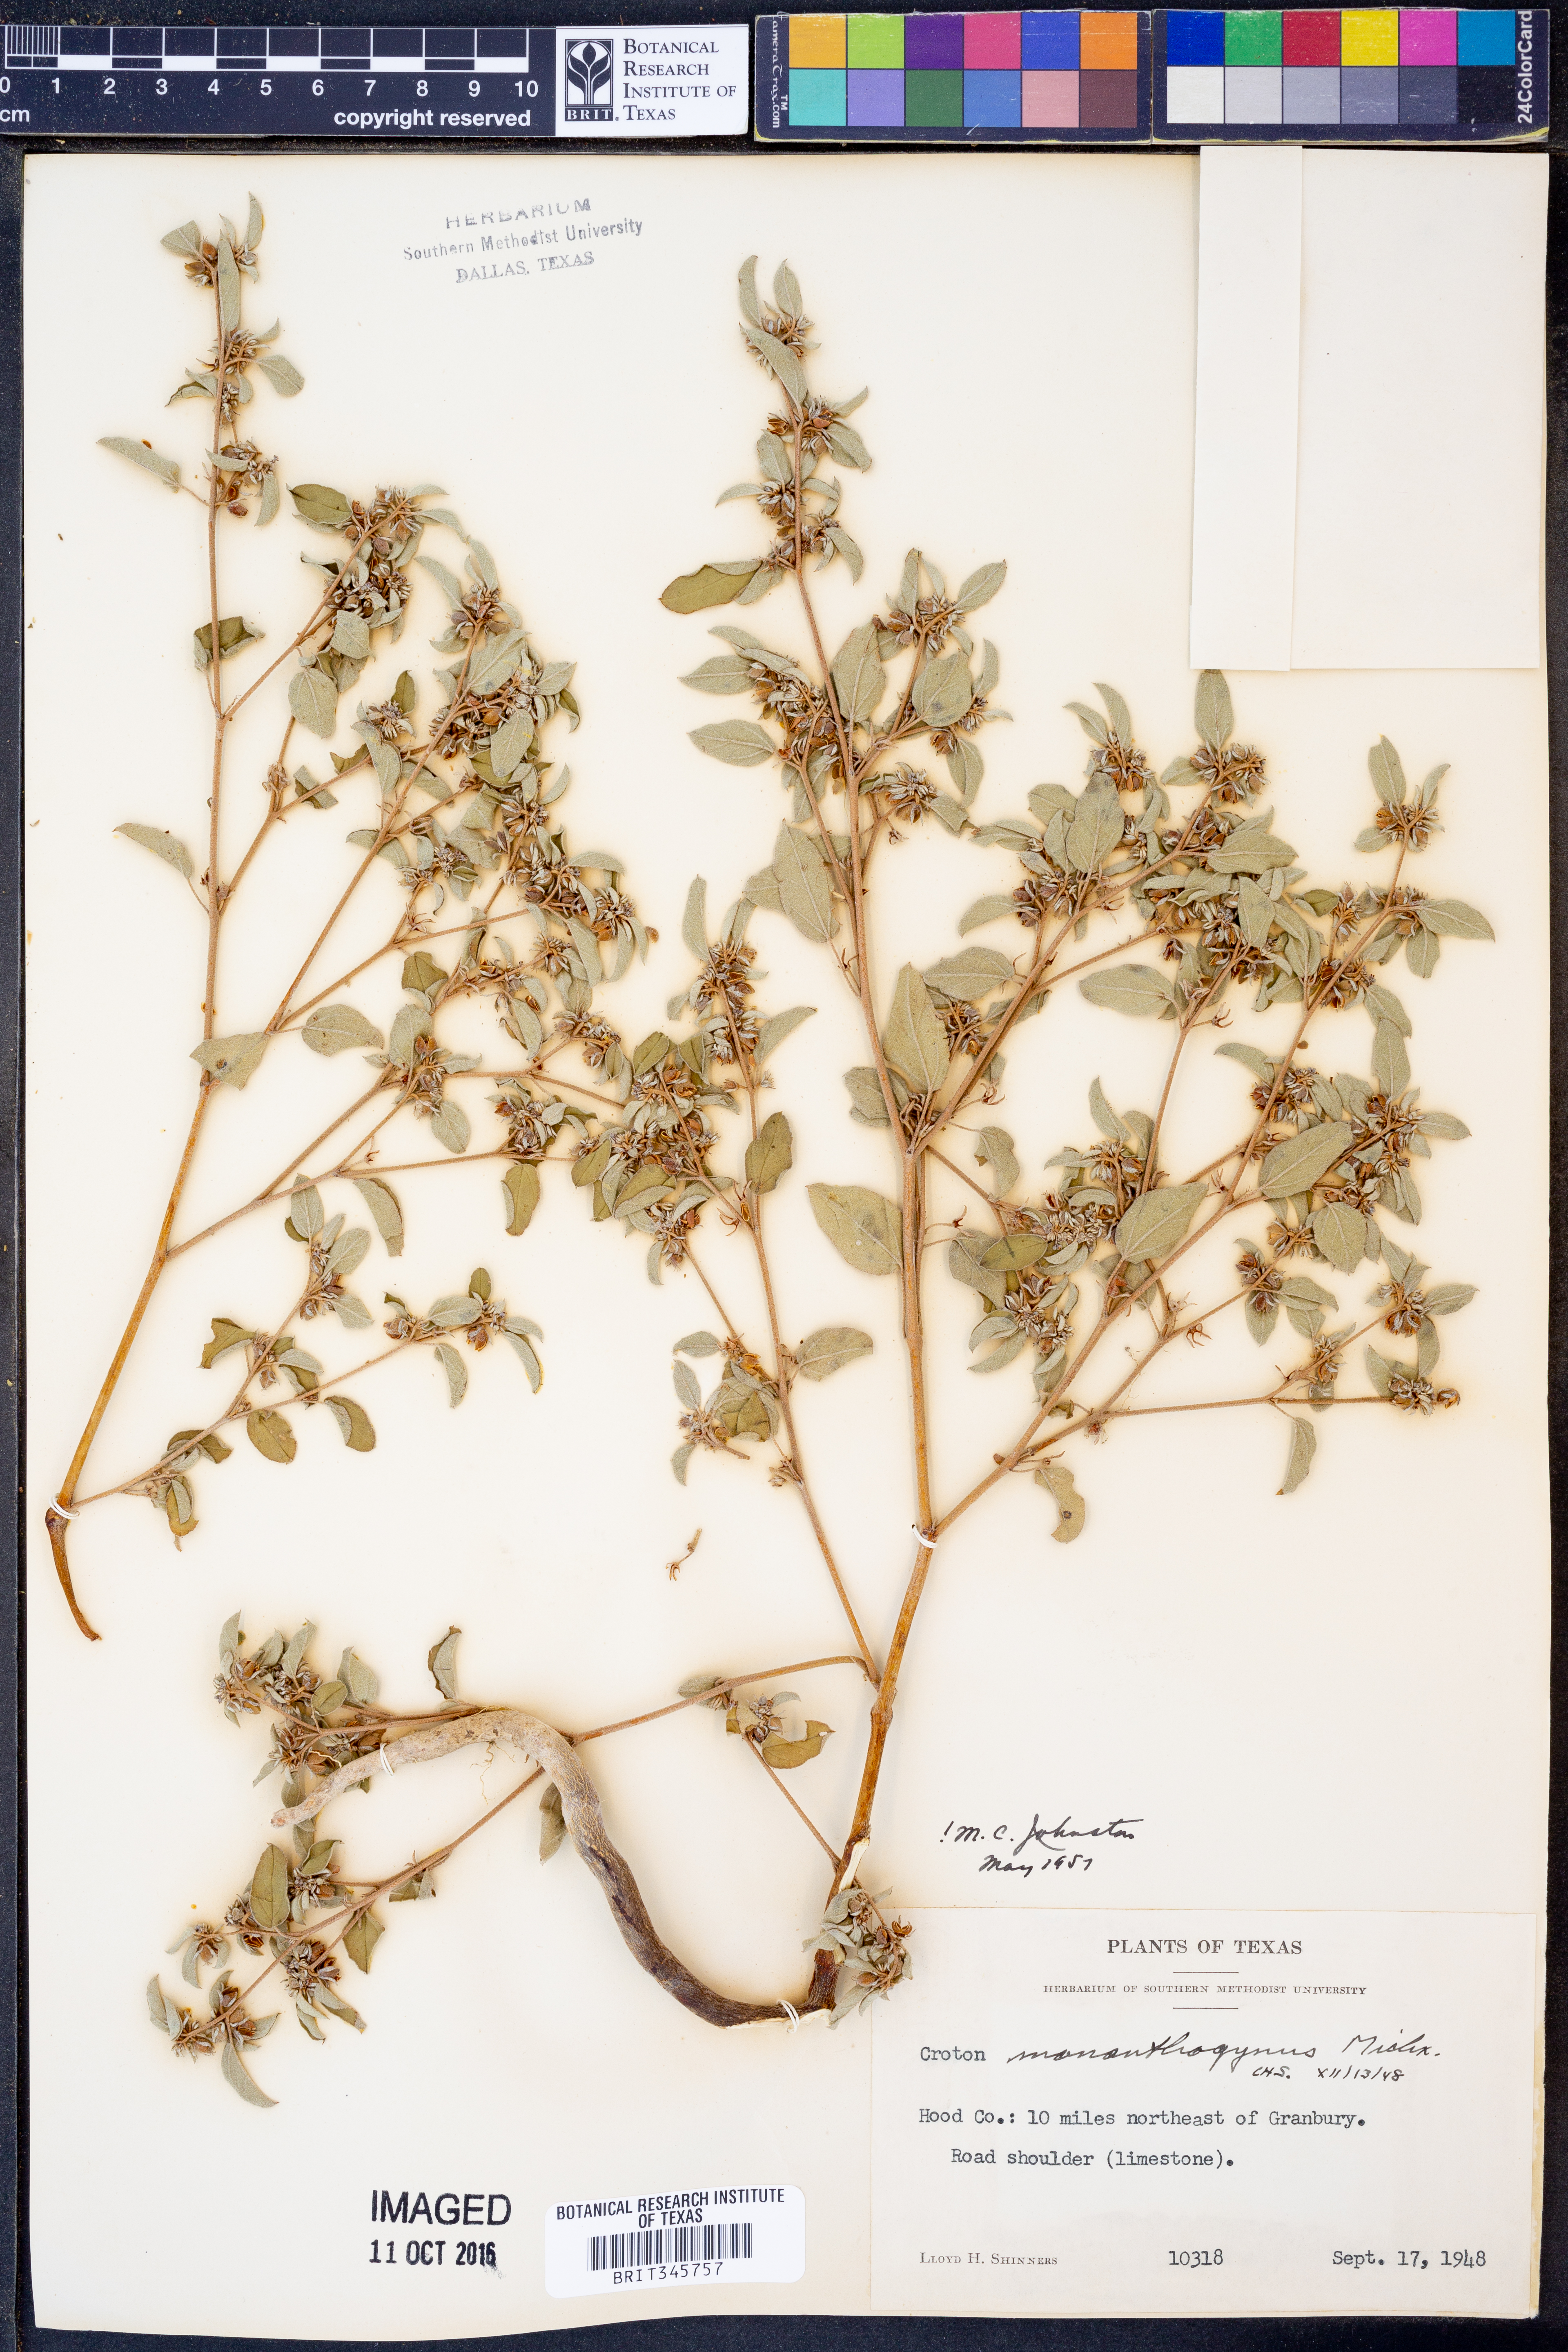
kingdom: Plantae
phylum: Tracheophyta
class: Magnoliopsida
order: Malpighiales
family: Euphorbiaceae
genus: Croton
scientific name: Croton monanthogynus
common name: One-seed croton
